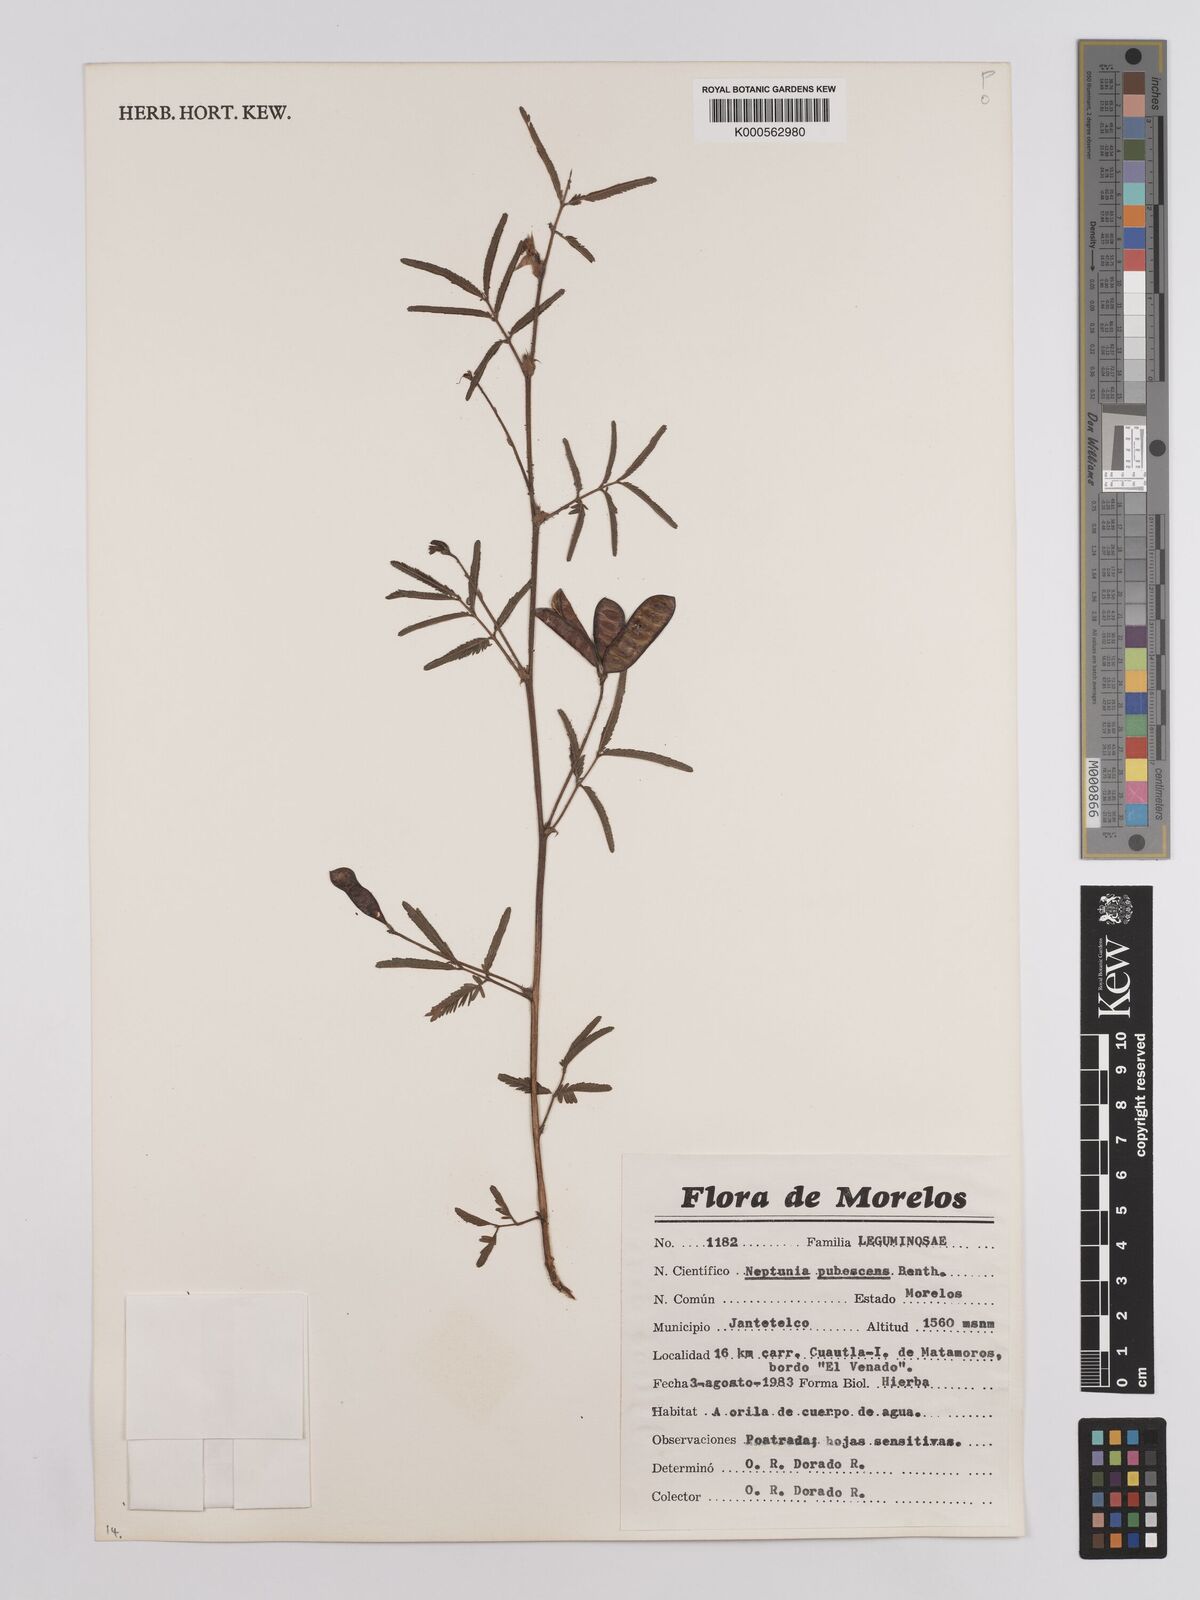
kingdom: Plantae
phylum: Tracheophyta
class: Magnoliopsida
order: Fabales
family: Fabaceae
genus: Neptunia
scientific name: Neptunia pubescens
